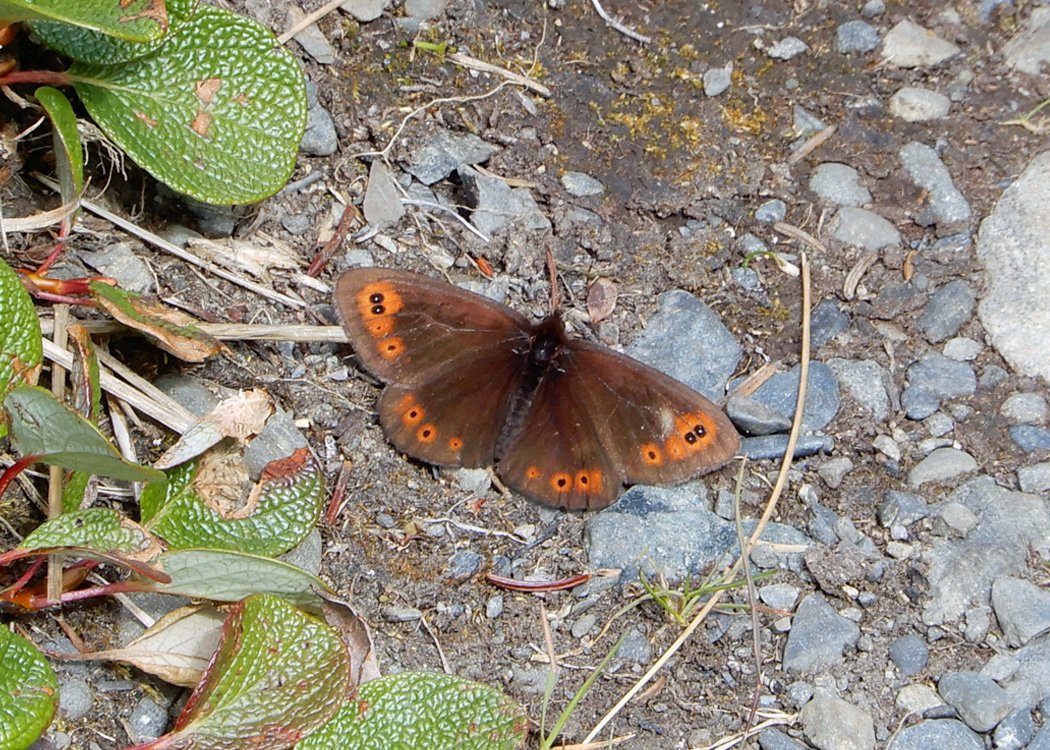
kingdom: Animalia
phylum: Arthropoda
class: Insecta
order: Lepidoptera
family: Nymphalidae
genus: Erebia
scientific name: Erebia epipsodea
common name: Common Alpine
